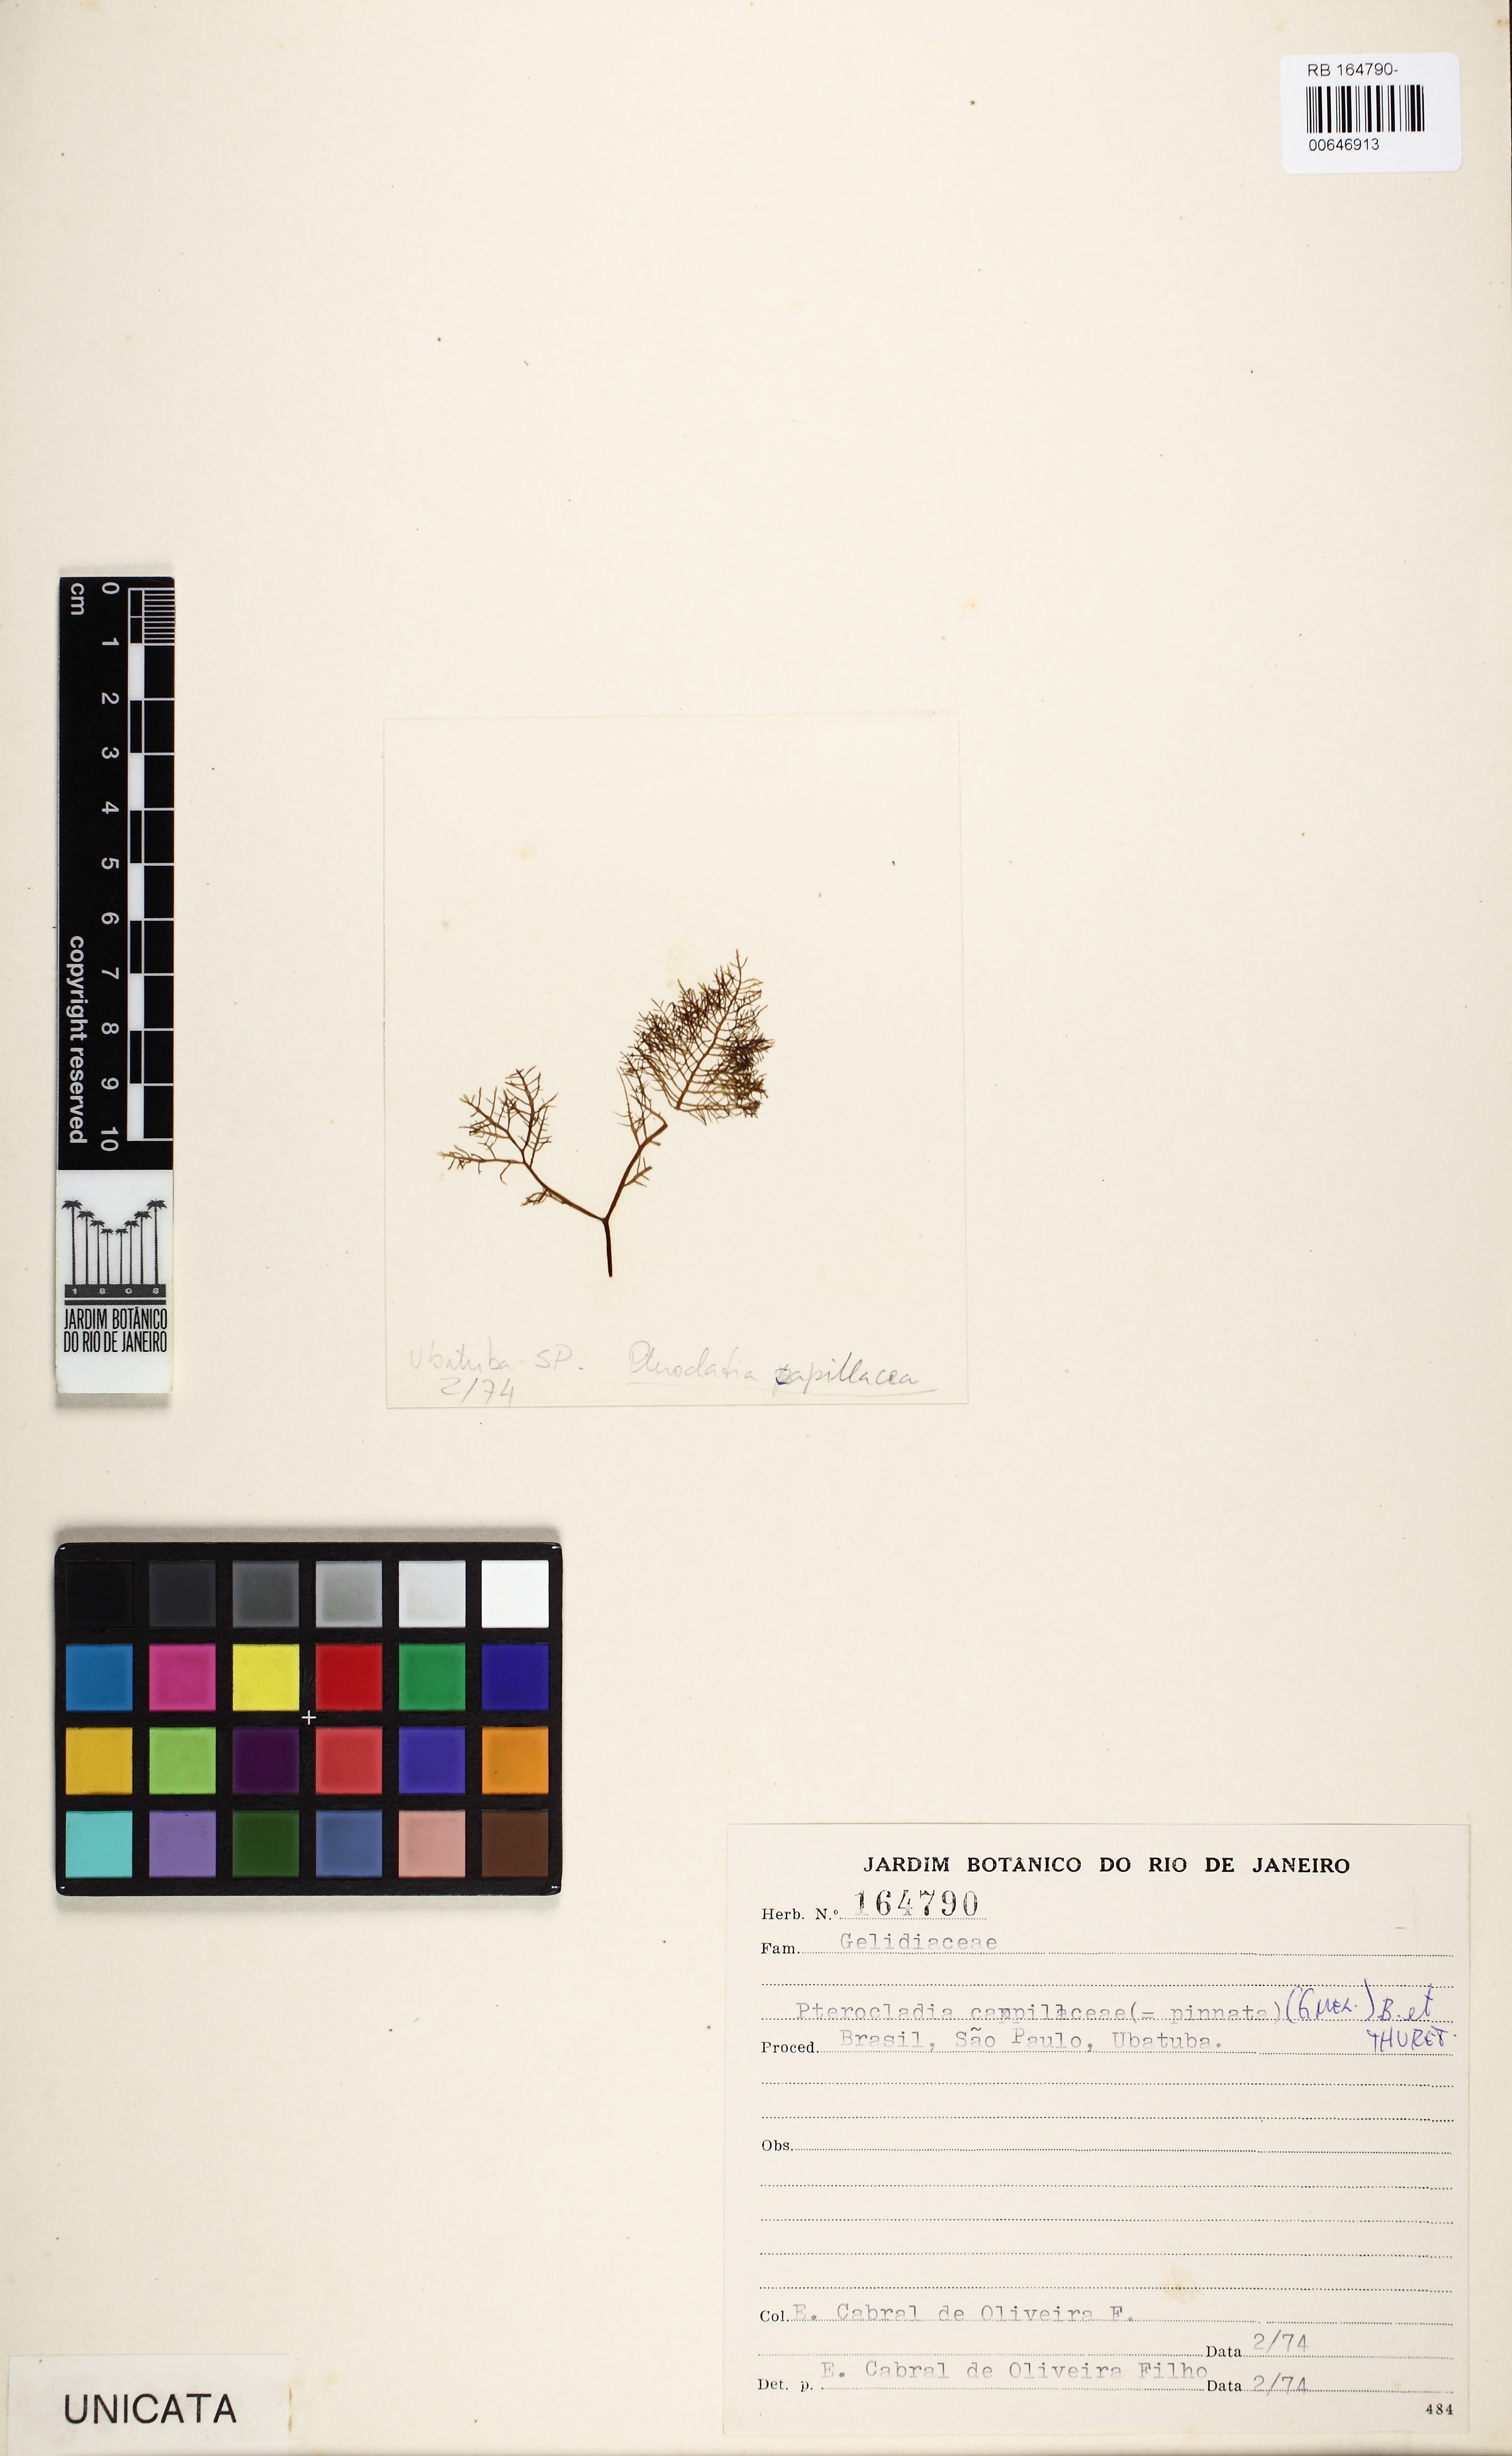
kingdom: Plantae
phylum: Rhodophyta
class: Florideophyceae
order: Gelidiales
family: Pterocladiaceae
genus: Pterocladiella
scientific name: Pterocladiella capillacea
